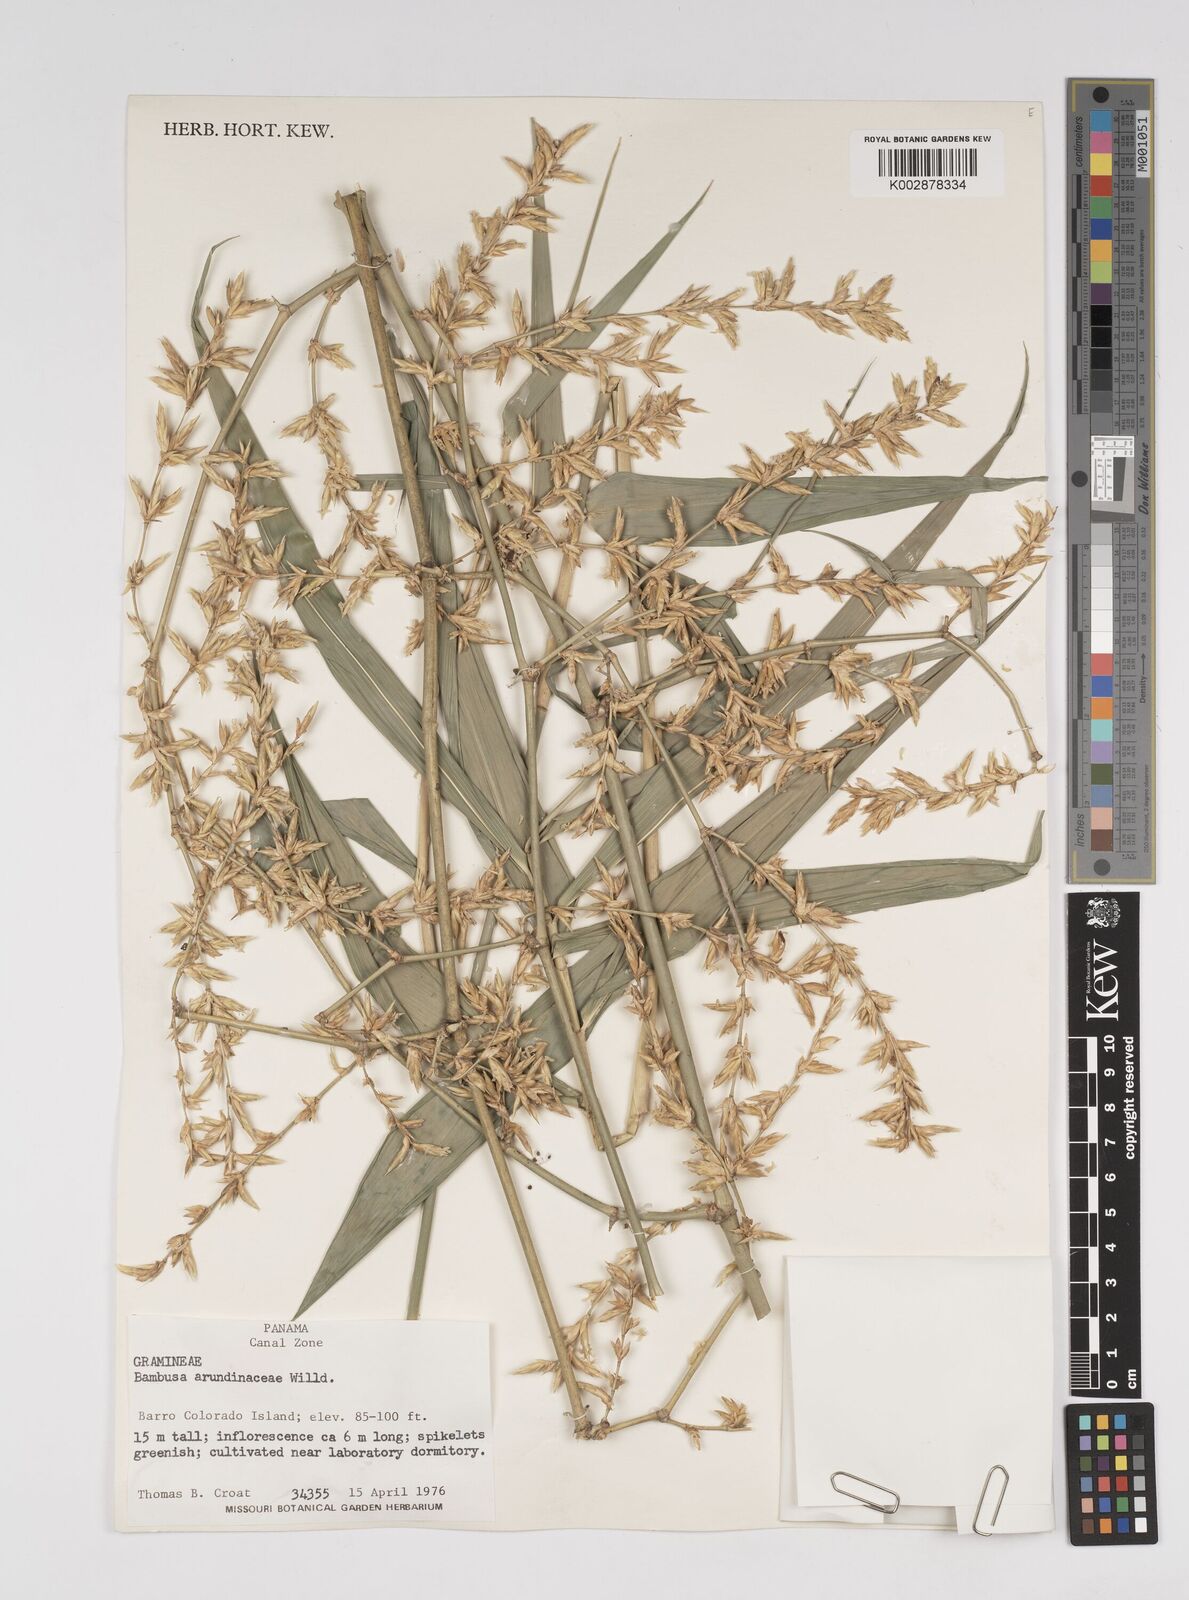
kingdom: Plantae
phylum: Tracheophyta
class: Liliopsida
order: Poales
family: Poaceae
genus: Bambusa
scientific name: Bambusa bambos
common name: Indian thorny bamboo
